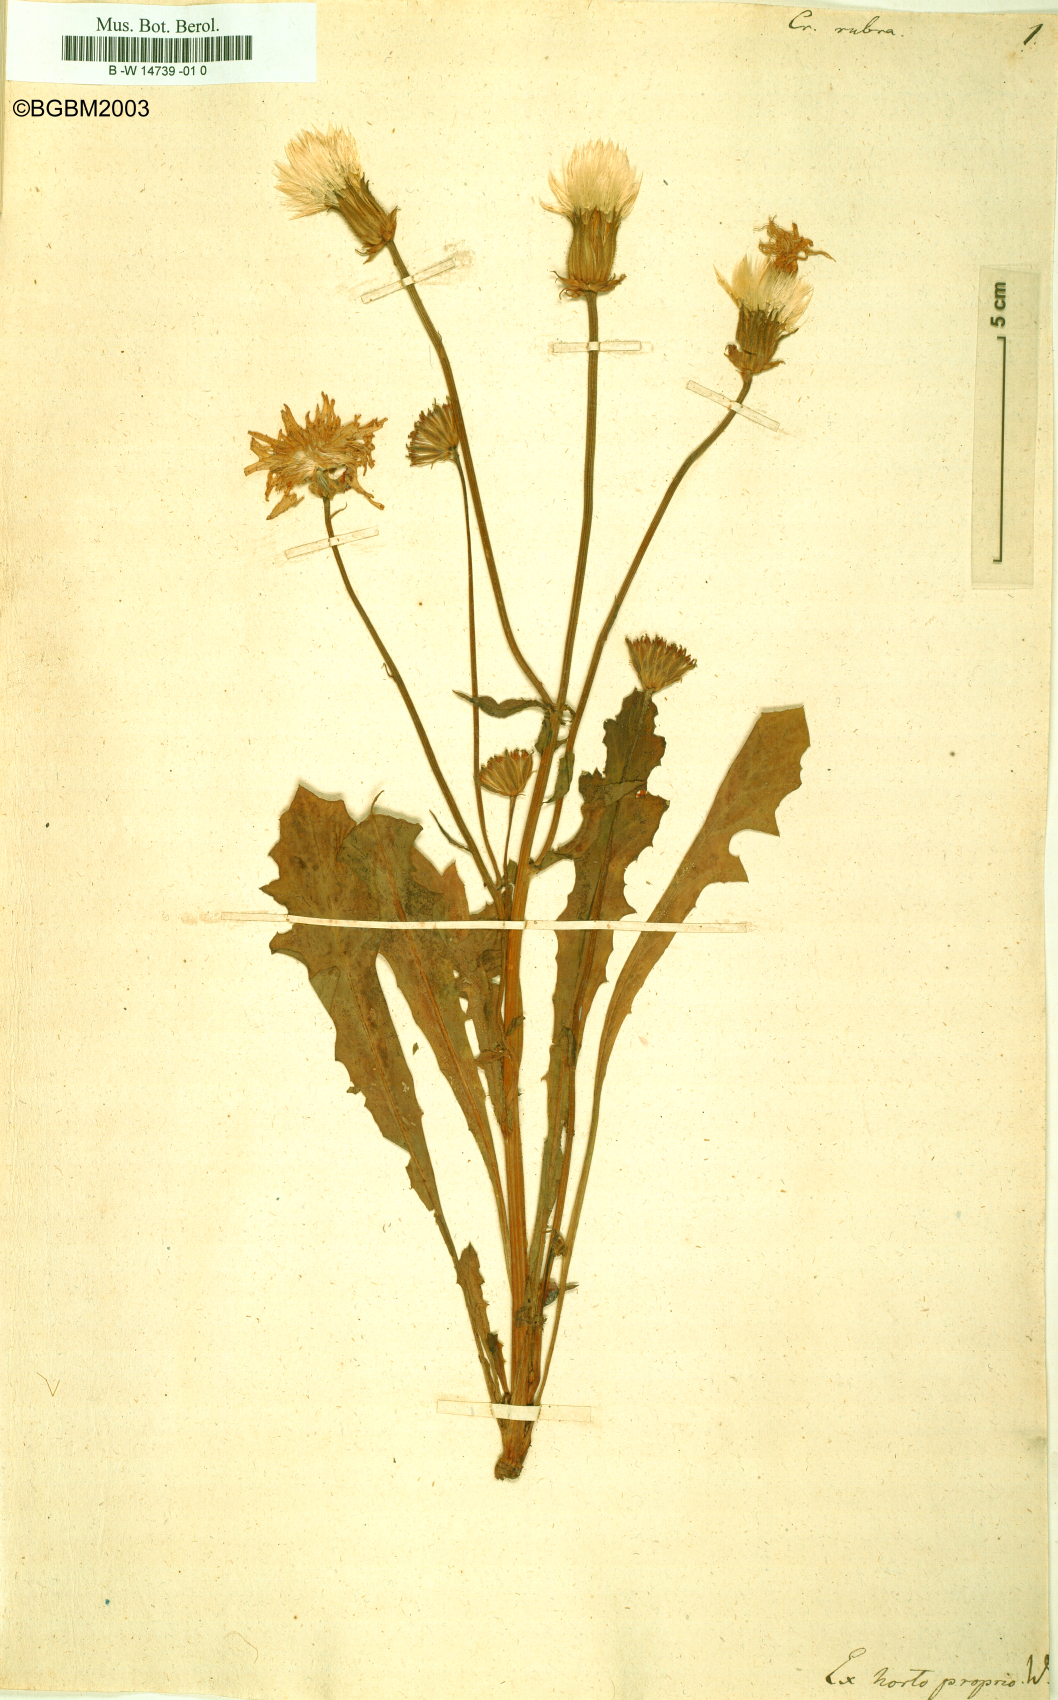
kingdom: Plantae
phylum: Tracheophyta
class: Magnoliopsida
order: Asterales
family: Asteraceae
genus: Crepis
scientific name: Crepis rubra
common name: Pink hawk's-beard
